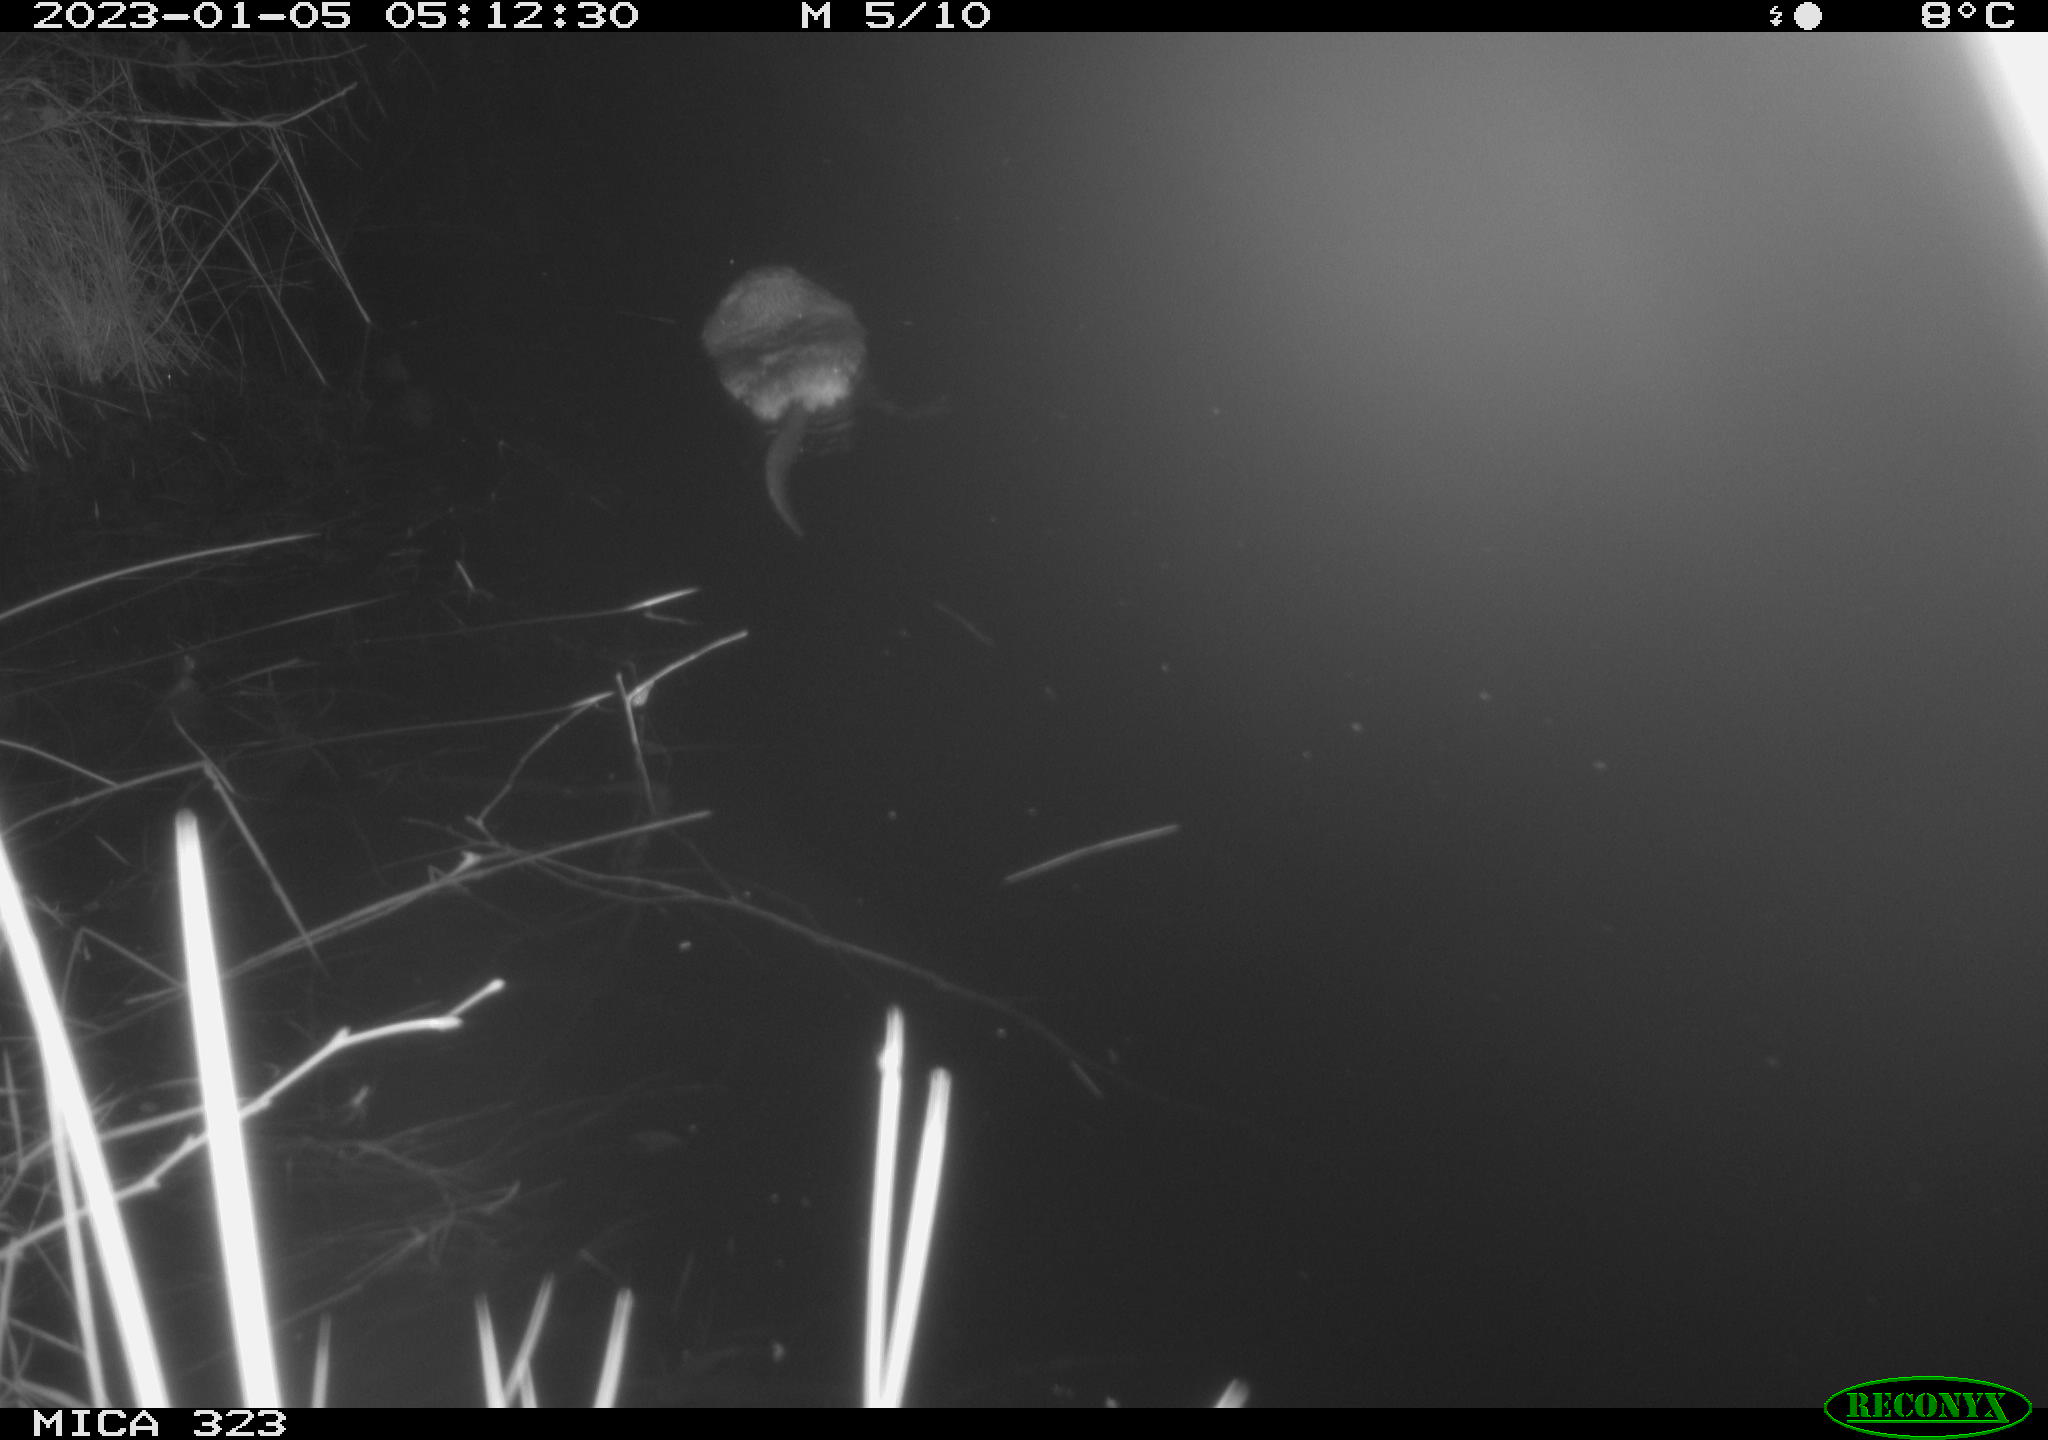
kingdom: Animalia
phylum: Chordata
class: Mammalia
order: Rodentia
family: Cricetidae
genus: Ondatra
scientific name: Ondatra zibethicus
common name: Muskrat
